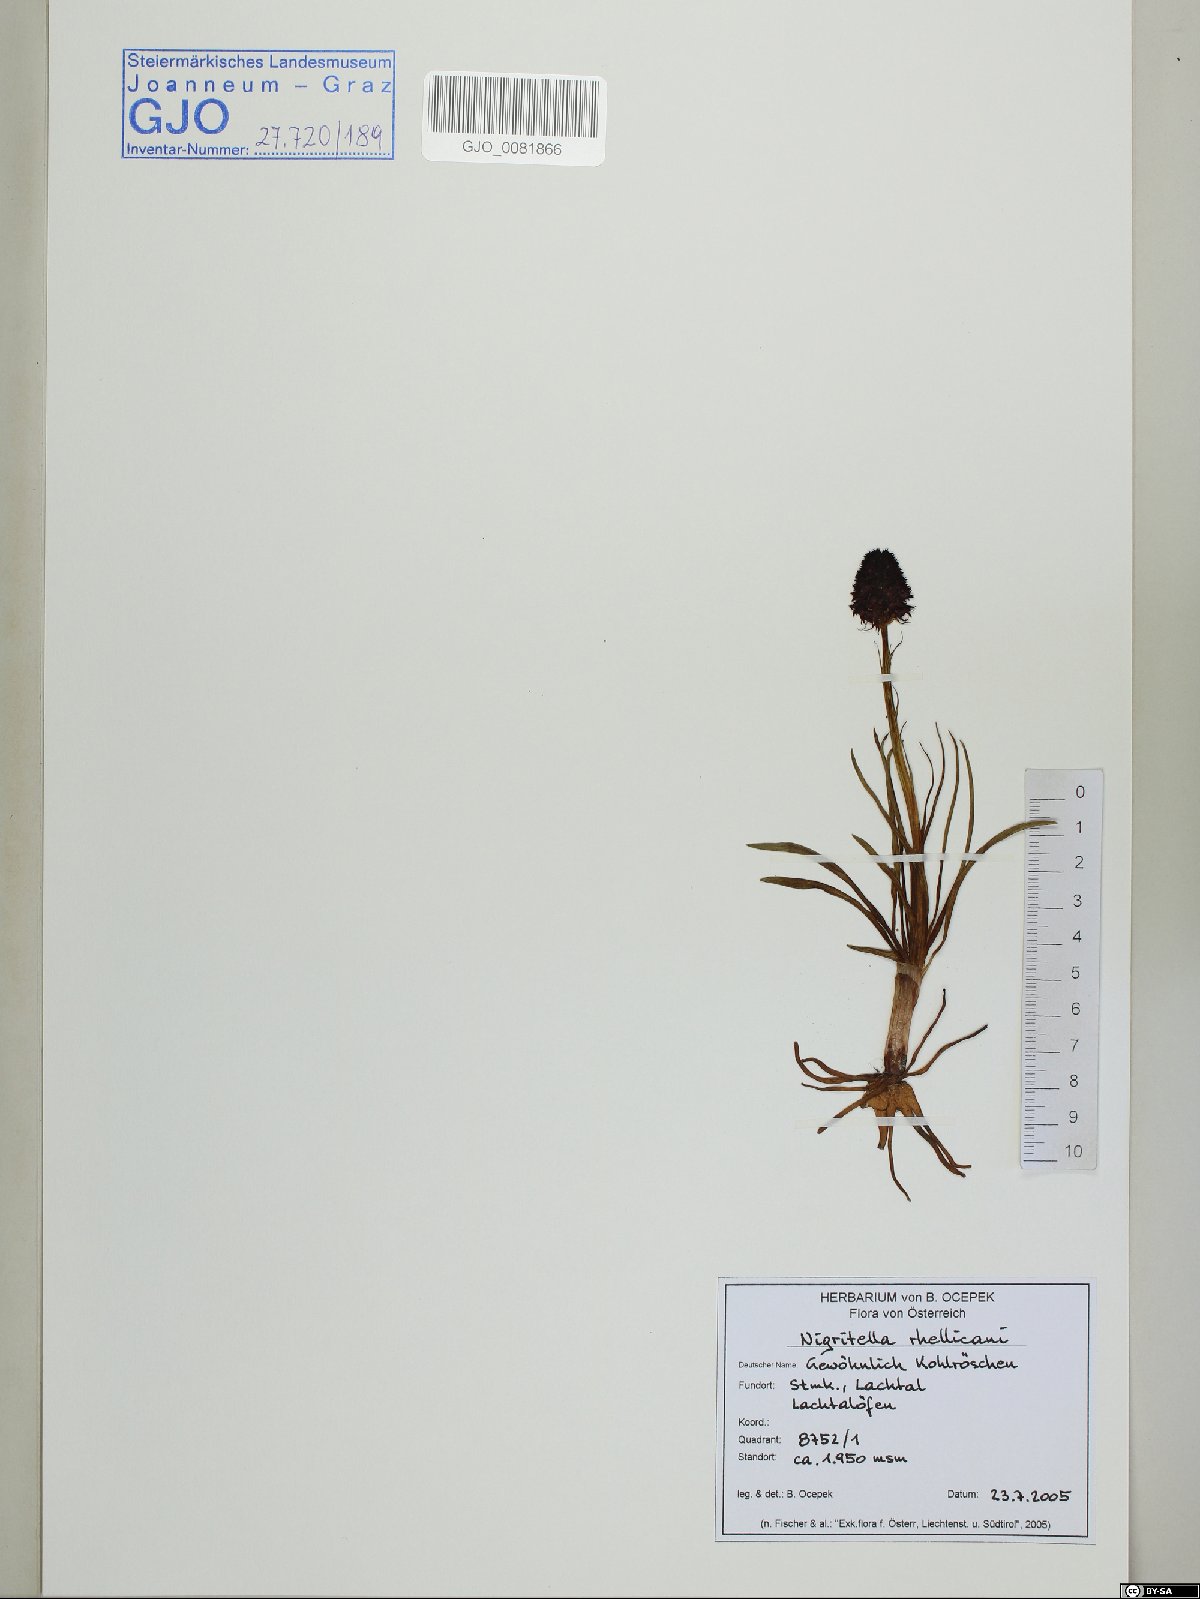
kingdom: Plantae
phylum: Tracheophyta
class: Liliopsida
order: Asparagales
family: Orchidaceae
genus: Gymnadenia
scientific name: Gymnadenia rhellicani
